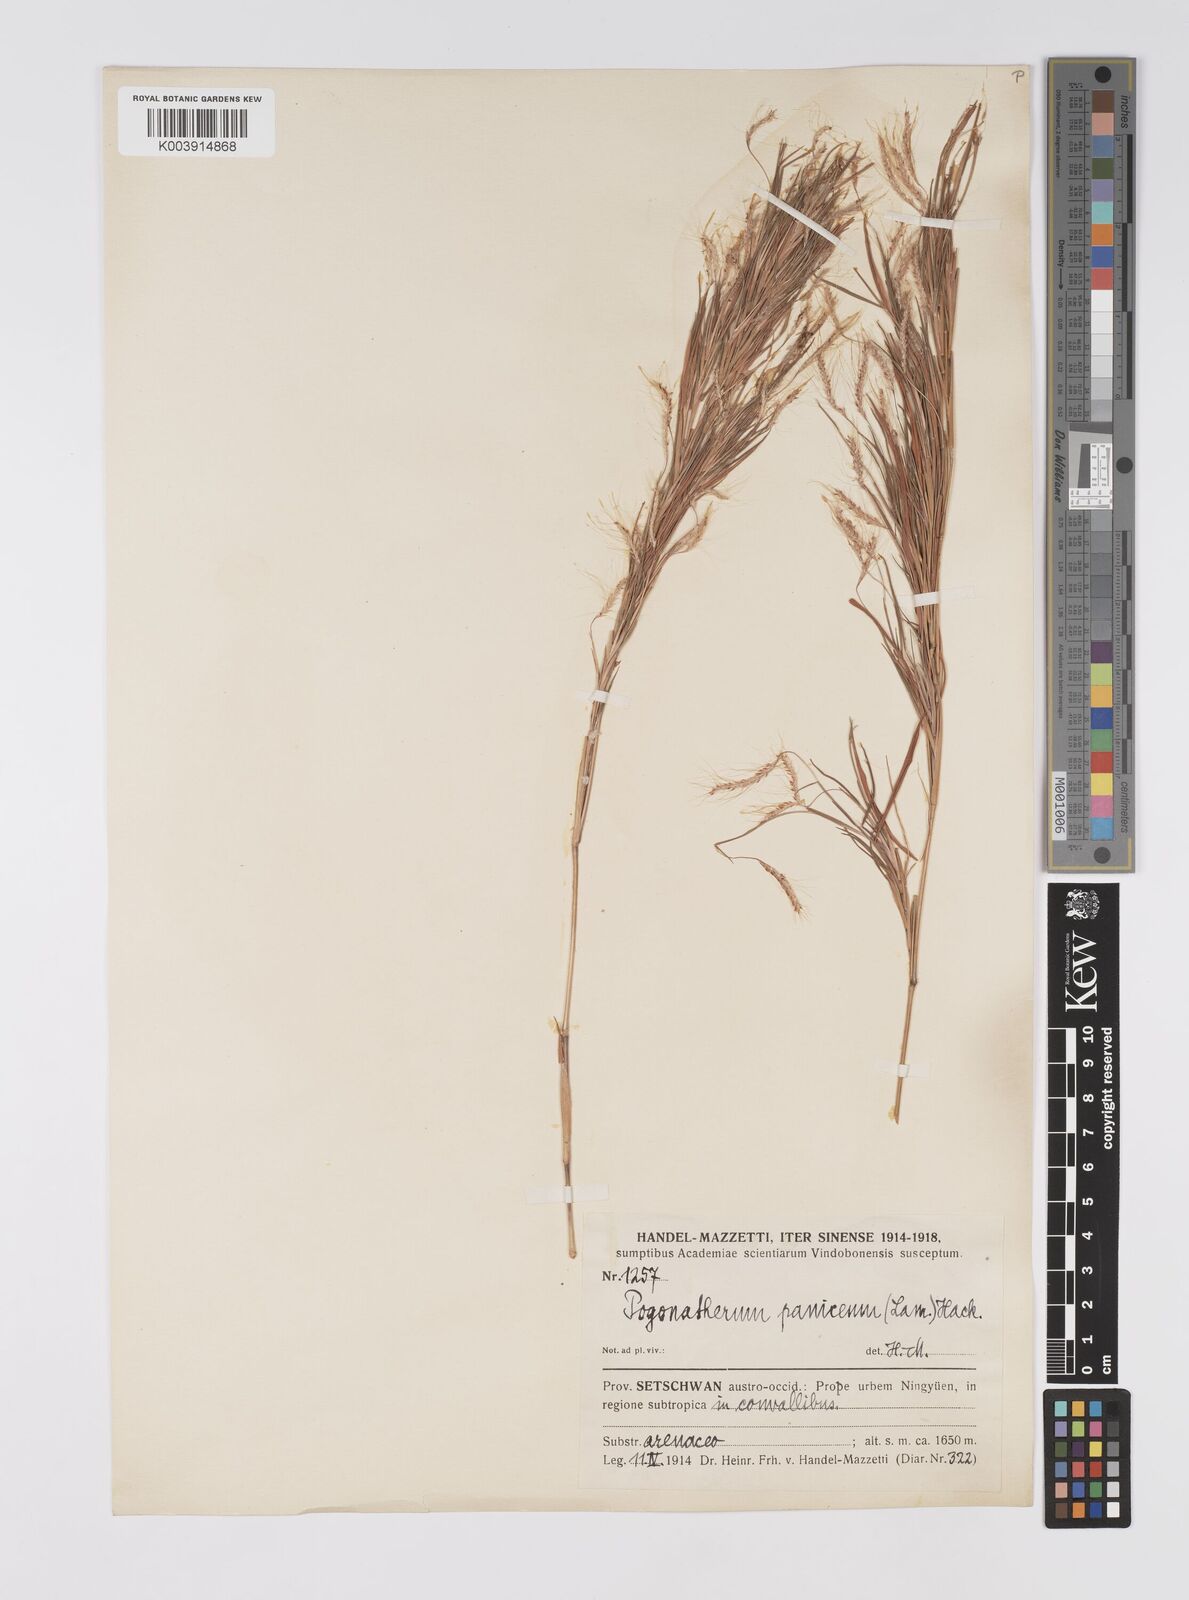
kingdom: Plantae
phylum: Tracheophyta
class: Liliopsida
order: Poales
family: Poaceae
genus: Pogonatherum
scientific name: Pogonatherum paniceum
